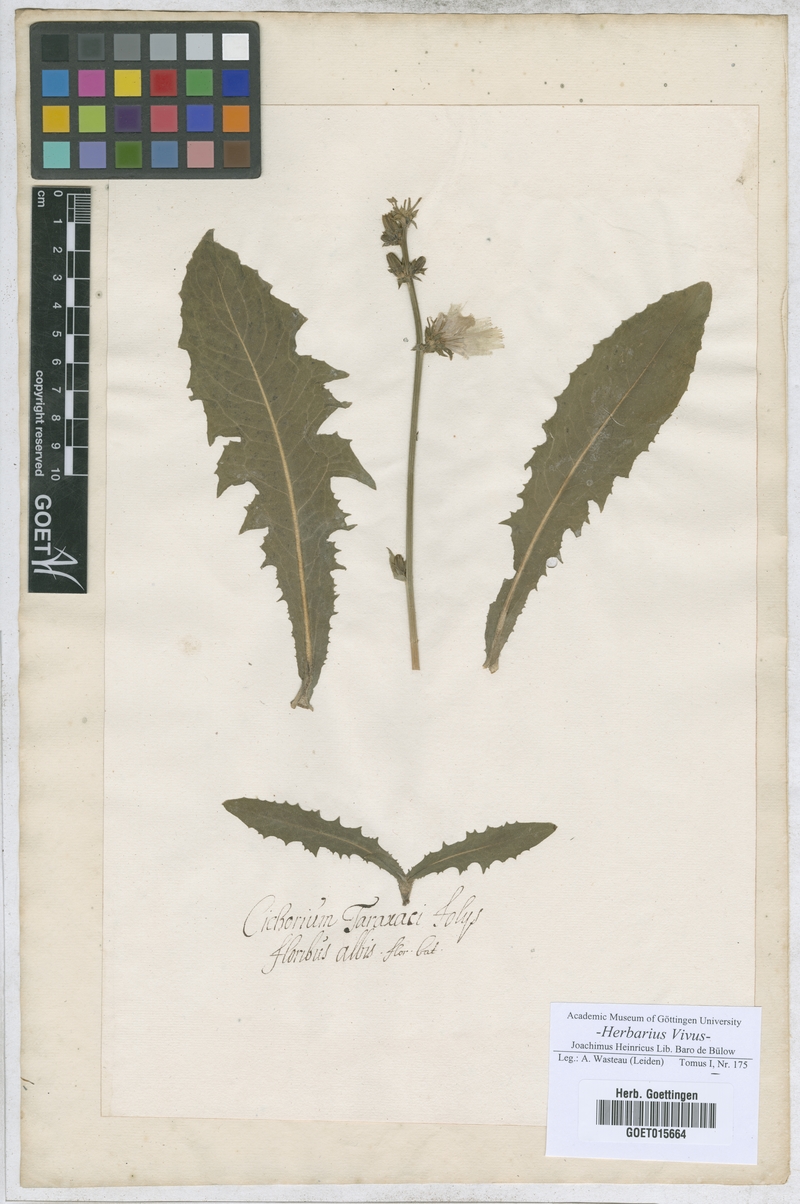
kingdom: Plantae
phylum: Tracheophyta
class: Magnoliopsida
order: Asterales
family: Asteraceae
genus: Cichorium
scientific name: Cichorium
